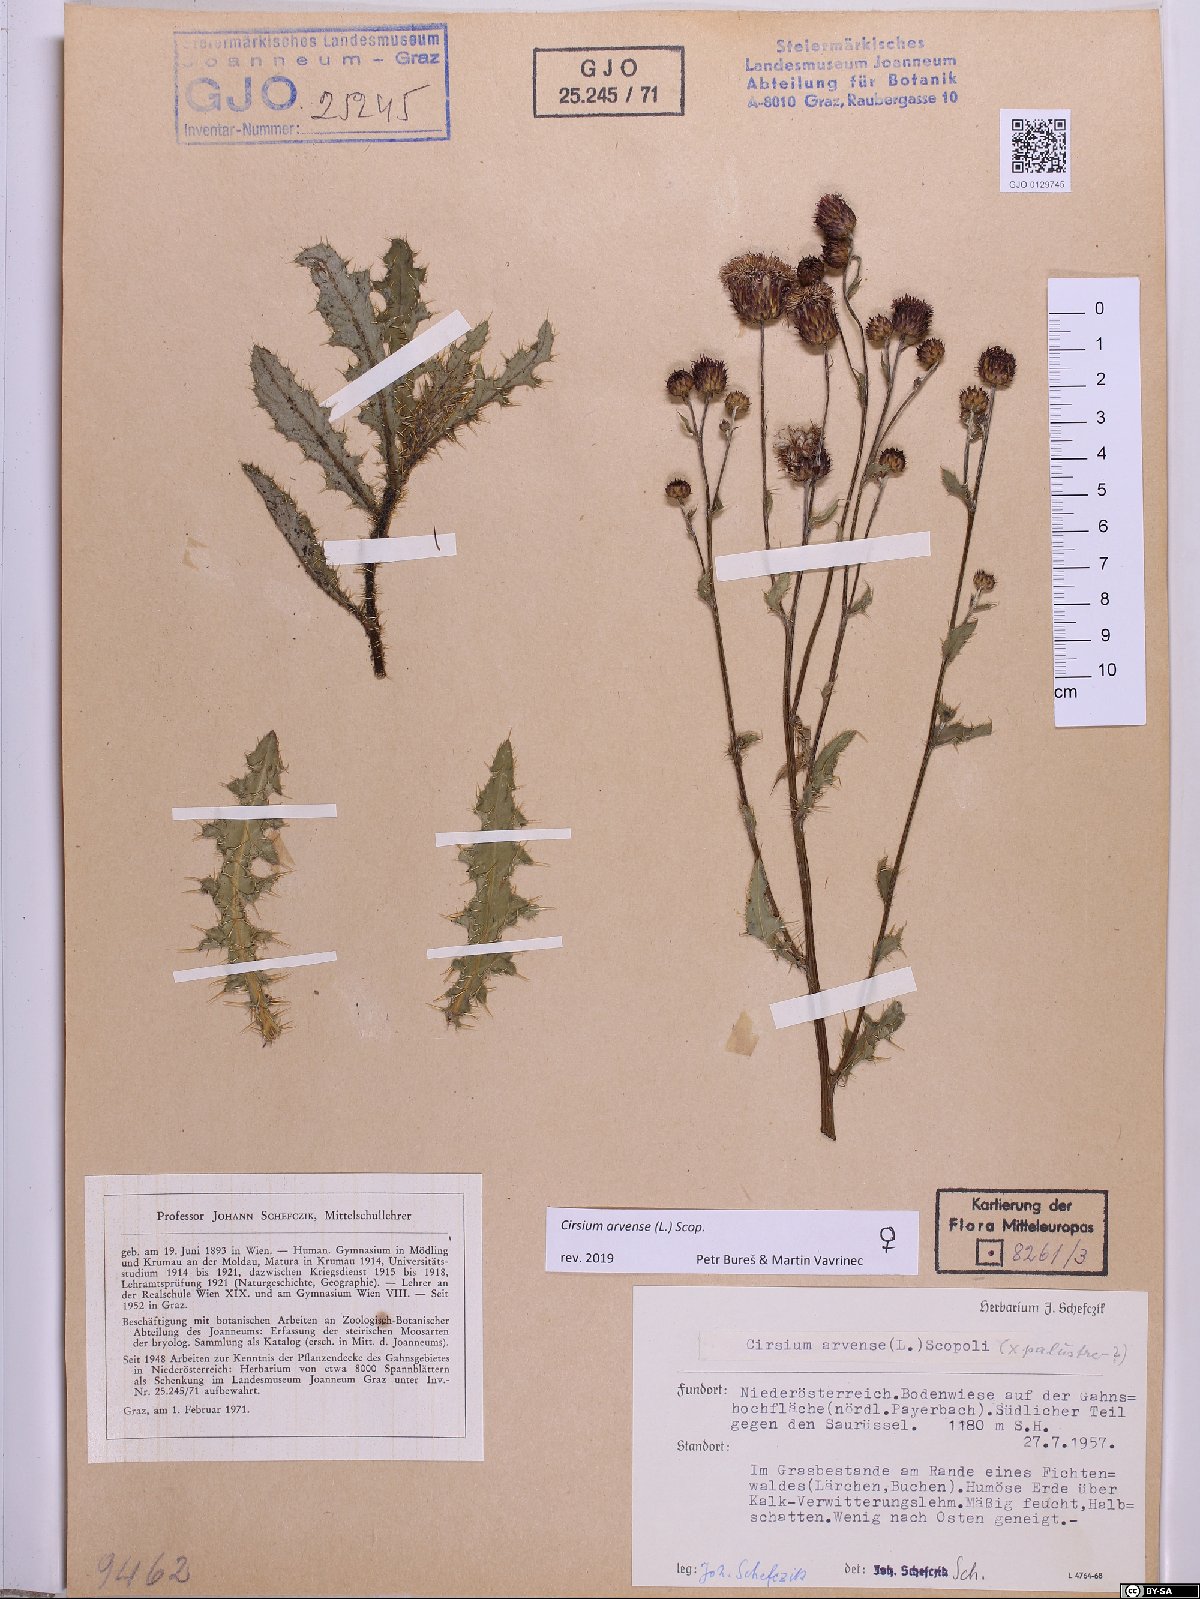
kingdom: Plantae
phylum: Tracheophyta
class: Magnoliopsida
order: Asterales
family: Asteraceae
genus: Cirsium
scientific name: Cirsium arvense
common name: Creeping thistle
